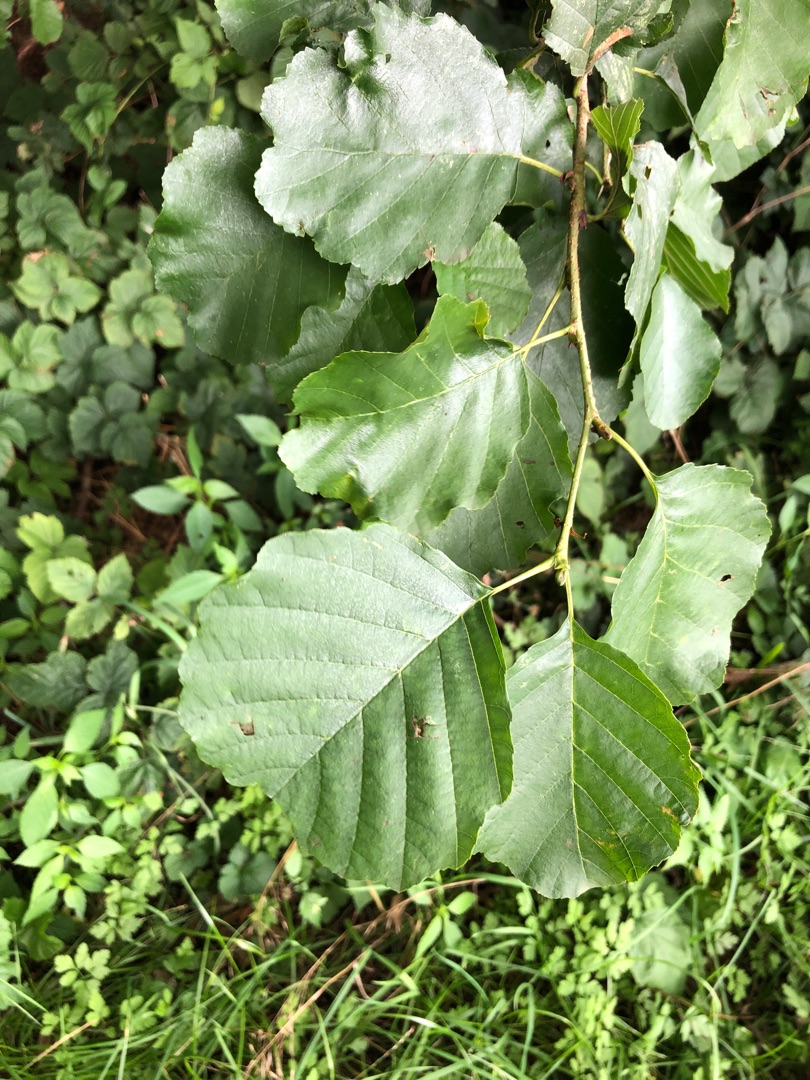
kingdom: Plantae
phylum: Tracheophyta
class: Magnoliopsida
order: Fagales
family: Betulaceae
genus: Alnus
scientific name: Alnus glutinosa
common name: Rød-el
